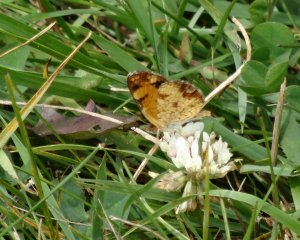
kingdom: Animalia
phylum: Arthropoda
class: Insecta
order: Lepidoptera
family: Nymphalidae
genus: Phyciodes
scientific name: Phyciodes tharos
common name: Northern Crescent
